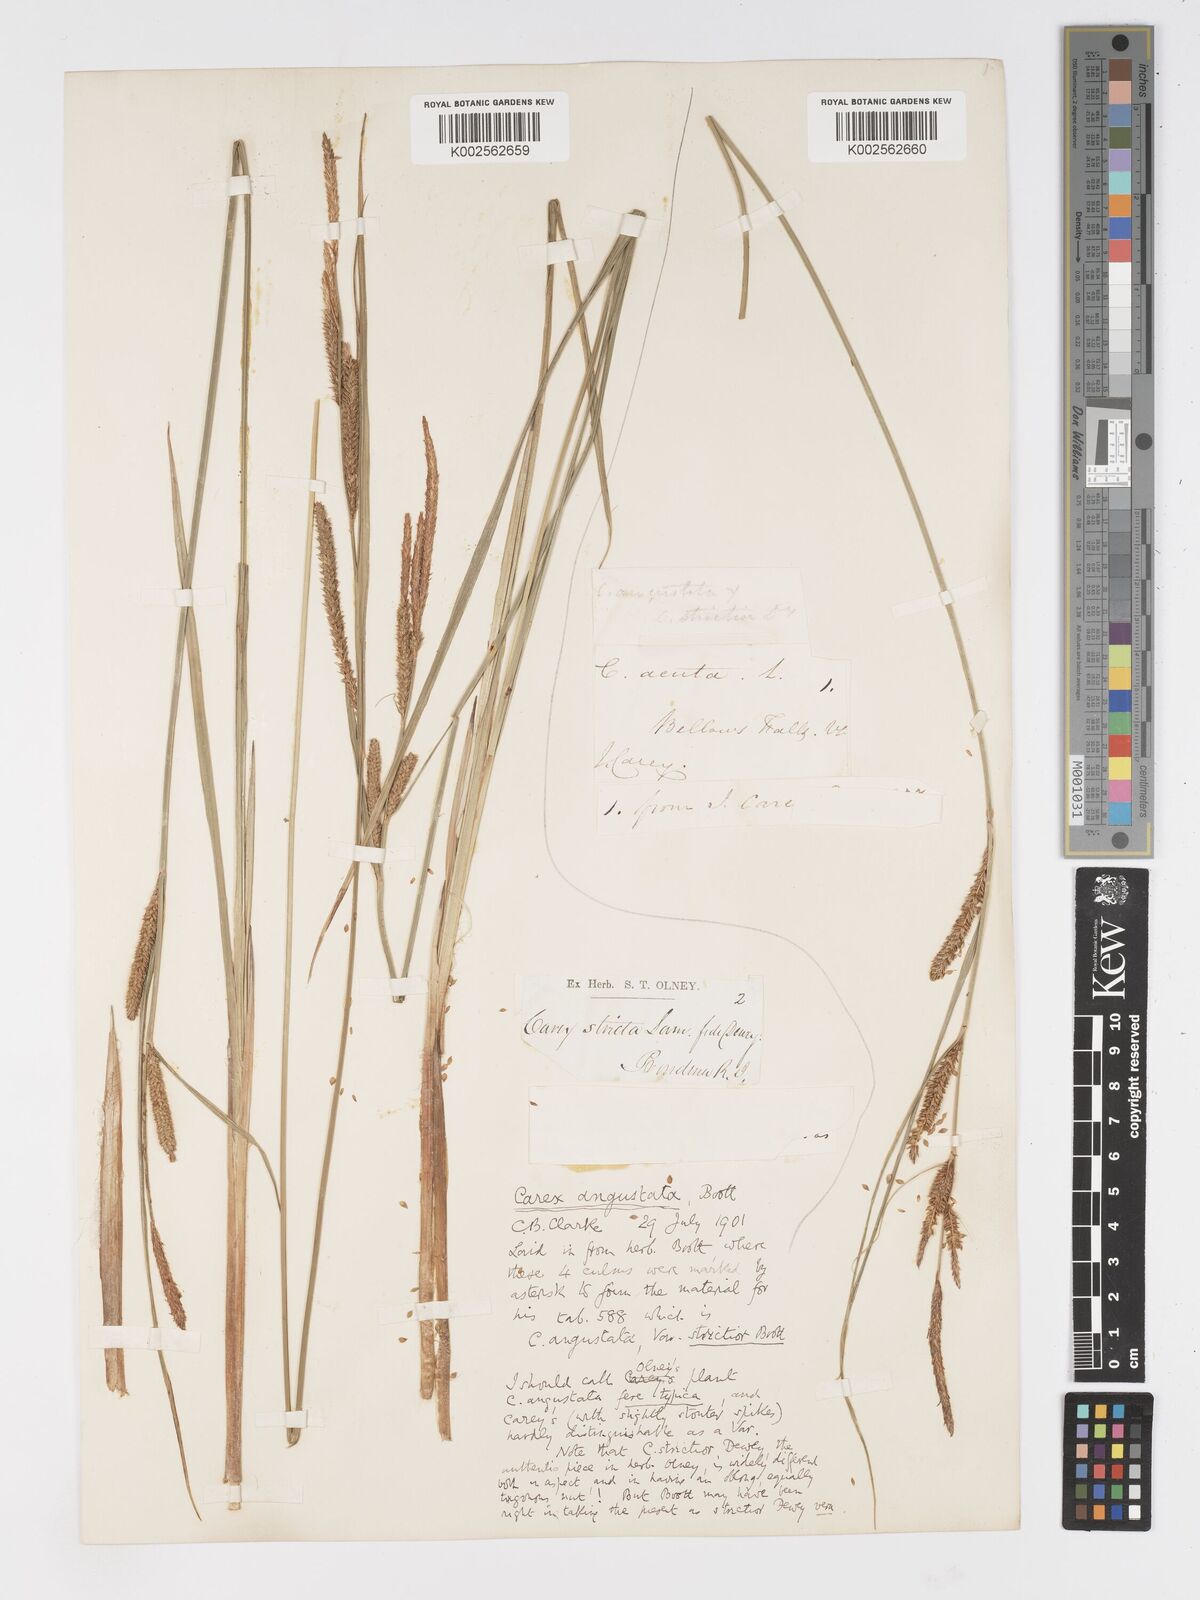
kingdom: Plantae
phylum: Tracheophyta
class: Liliopsida
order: Poales
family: Cyperaceae
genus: Carex
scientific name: Carex stricta
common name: Hummock sedge
